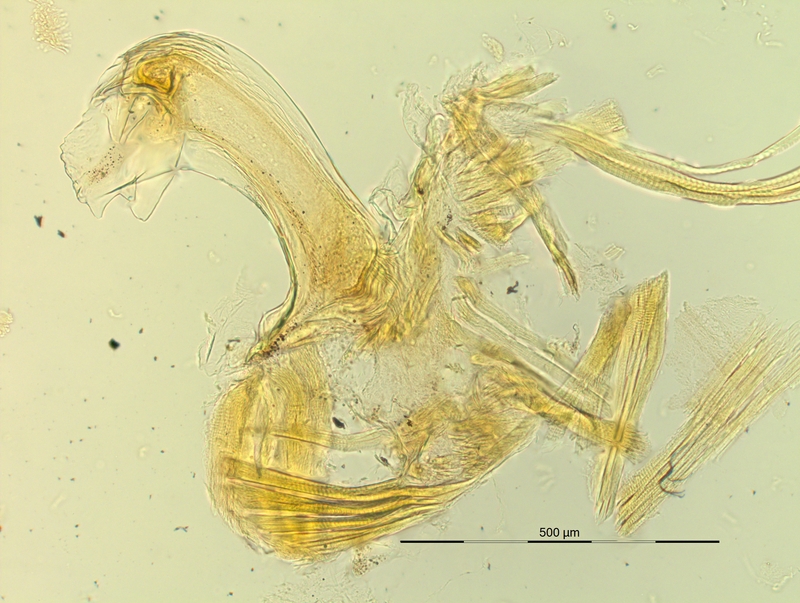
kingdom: Animalia
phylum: Arthropoda
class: Diplopoda
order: Chordeumatida
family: Craspedosomatidae
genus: Pyrgocyphosoma
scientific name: Pyrgocyphosoma brembanum
